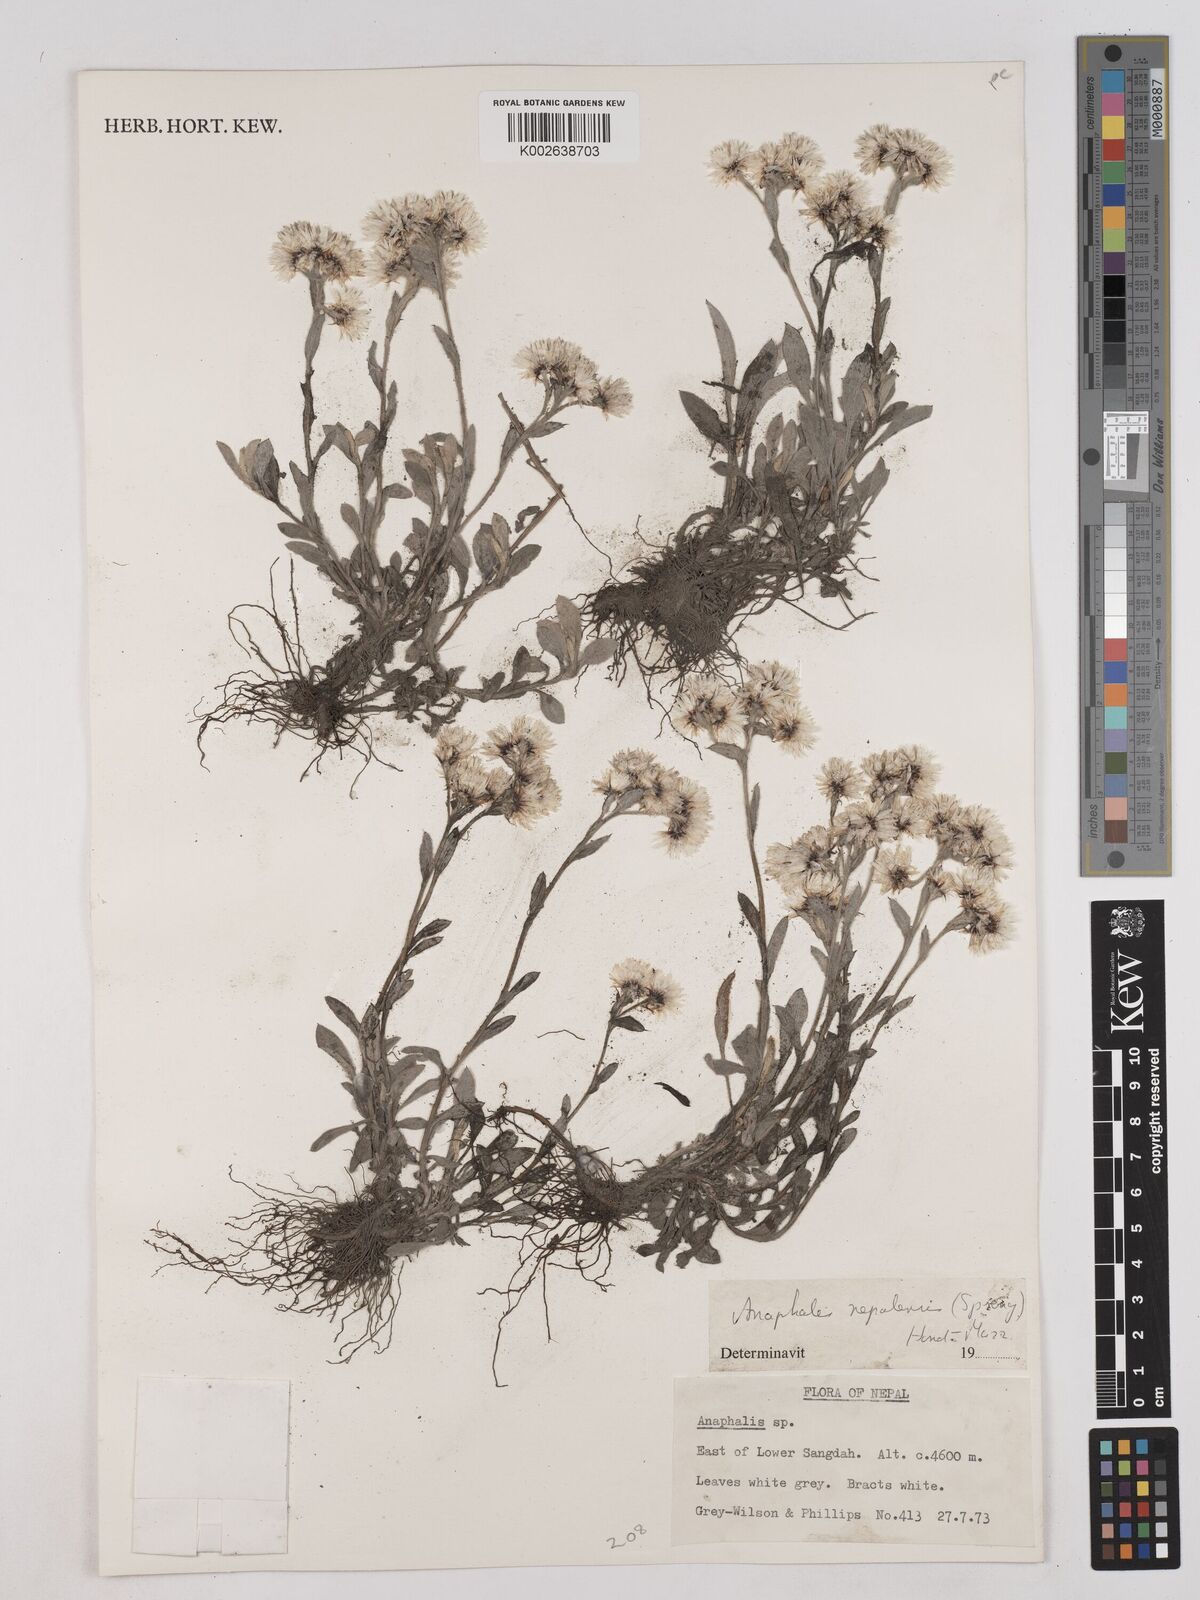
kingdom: Plantae
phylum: Tracheophyta
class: Magnoliopsida
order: Asterales
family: Asteraceae
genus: Anaphalis
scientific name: Anaphalis
